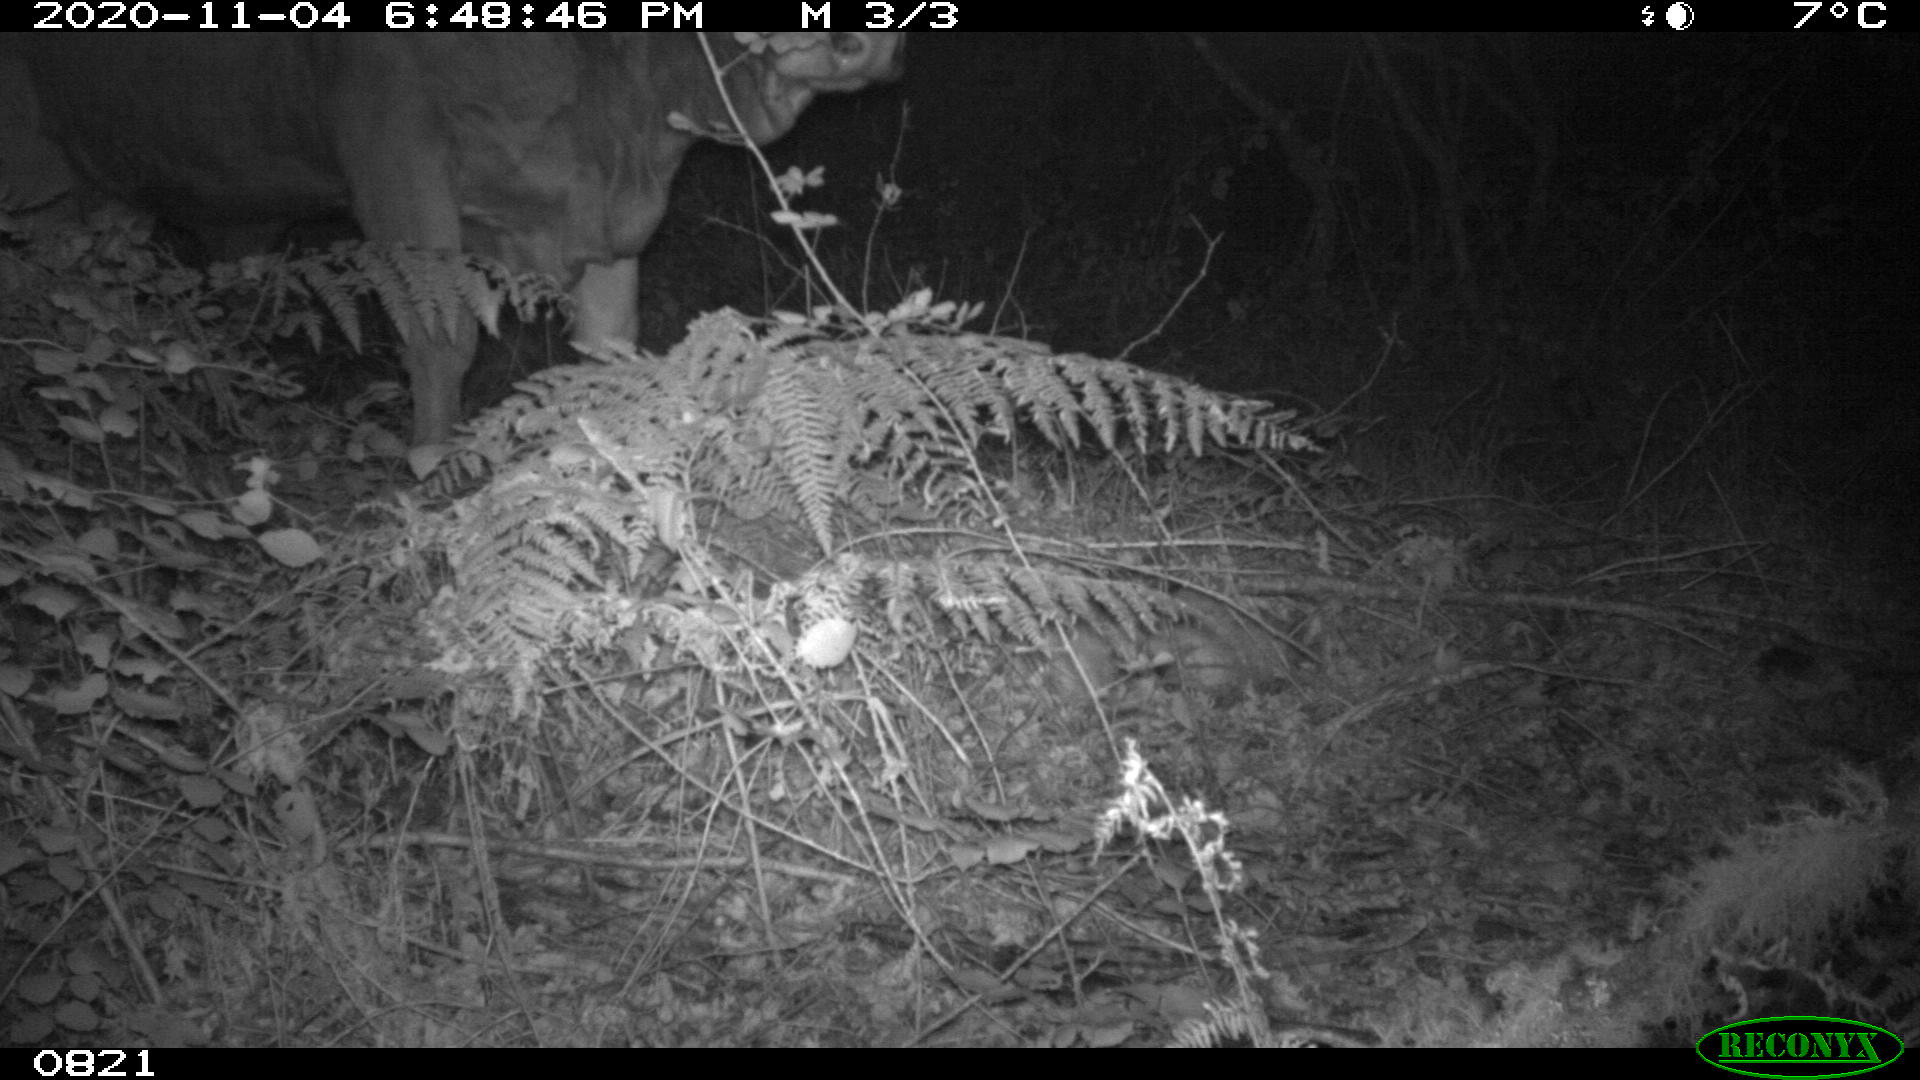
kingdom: Animalia
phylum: Chordata
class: Mammalia
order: Artiodactyla
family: Bovidae
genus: Bos
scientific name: Bos taurus
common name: Domesticated cattle
